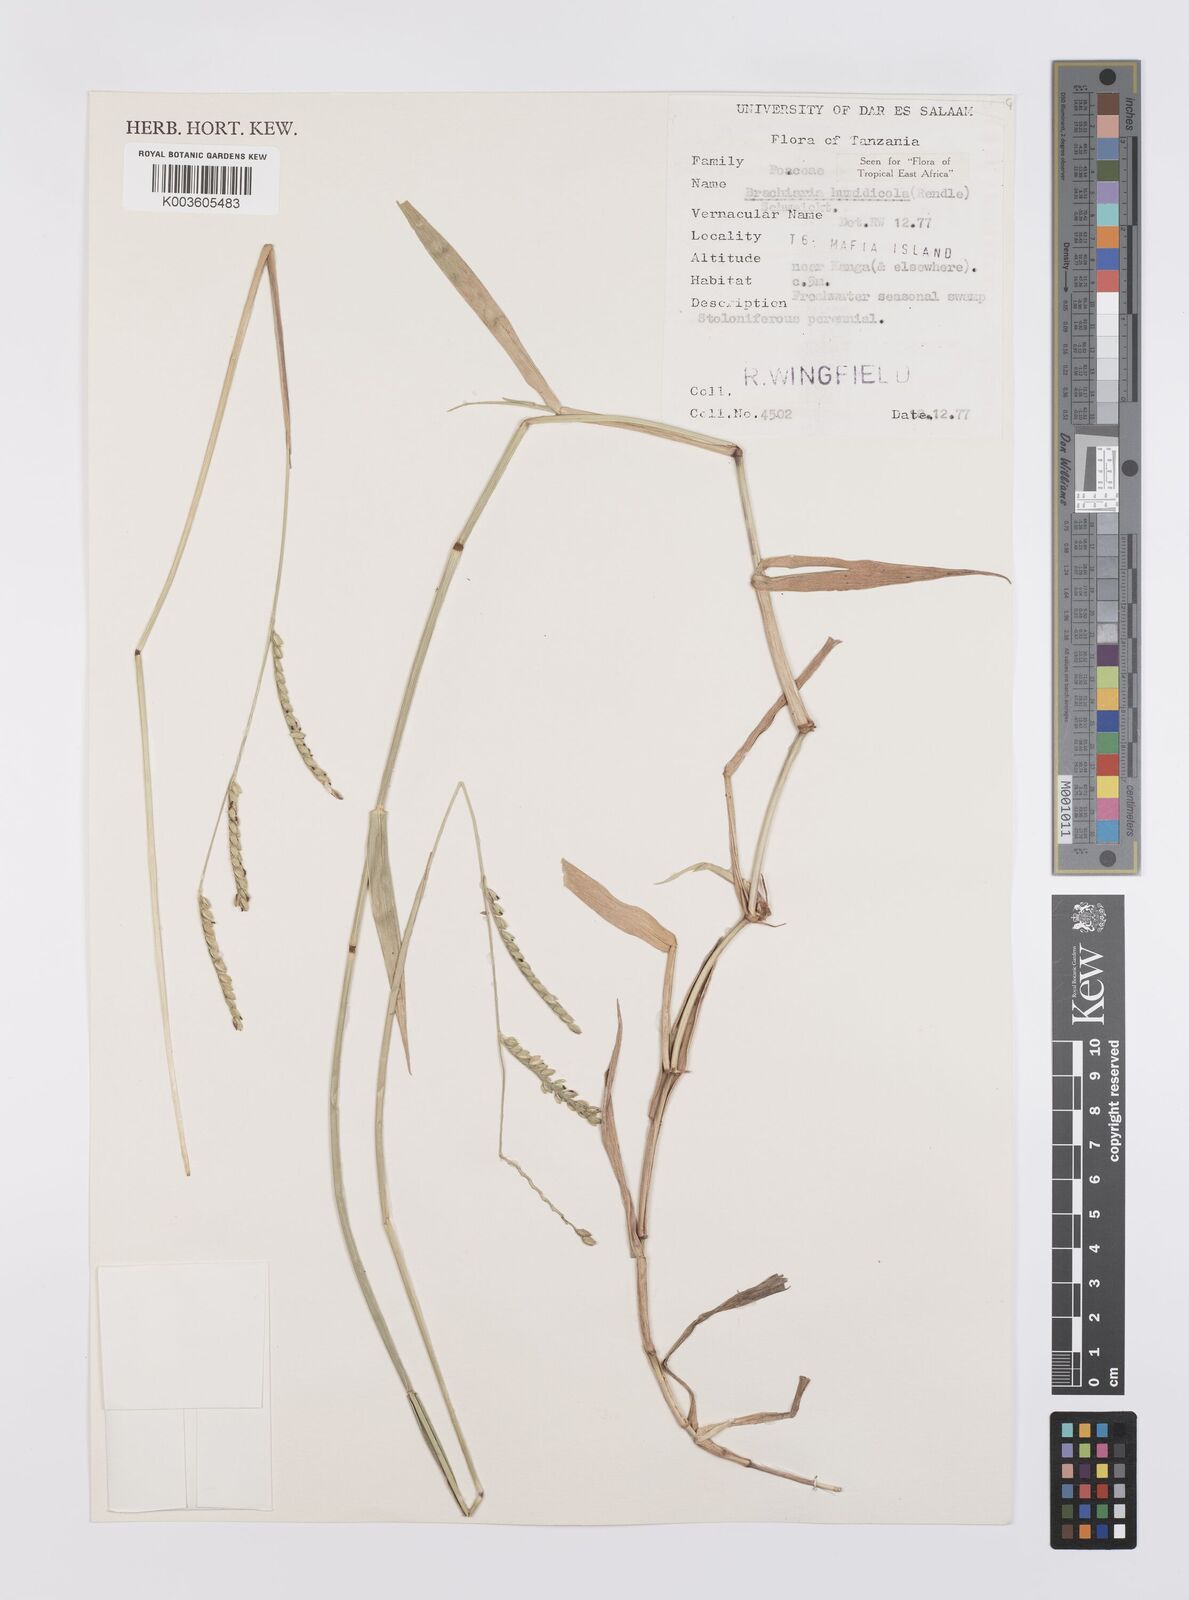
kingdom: Plantae
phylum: Tracheophyta
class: Liliopsida
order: Poales
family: Poaceae
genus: Urochloa
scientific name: Urochloa dictyoneura
